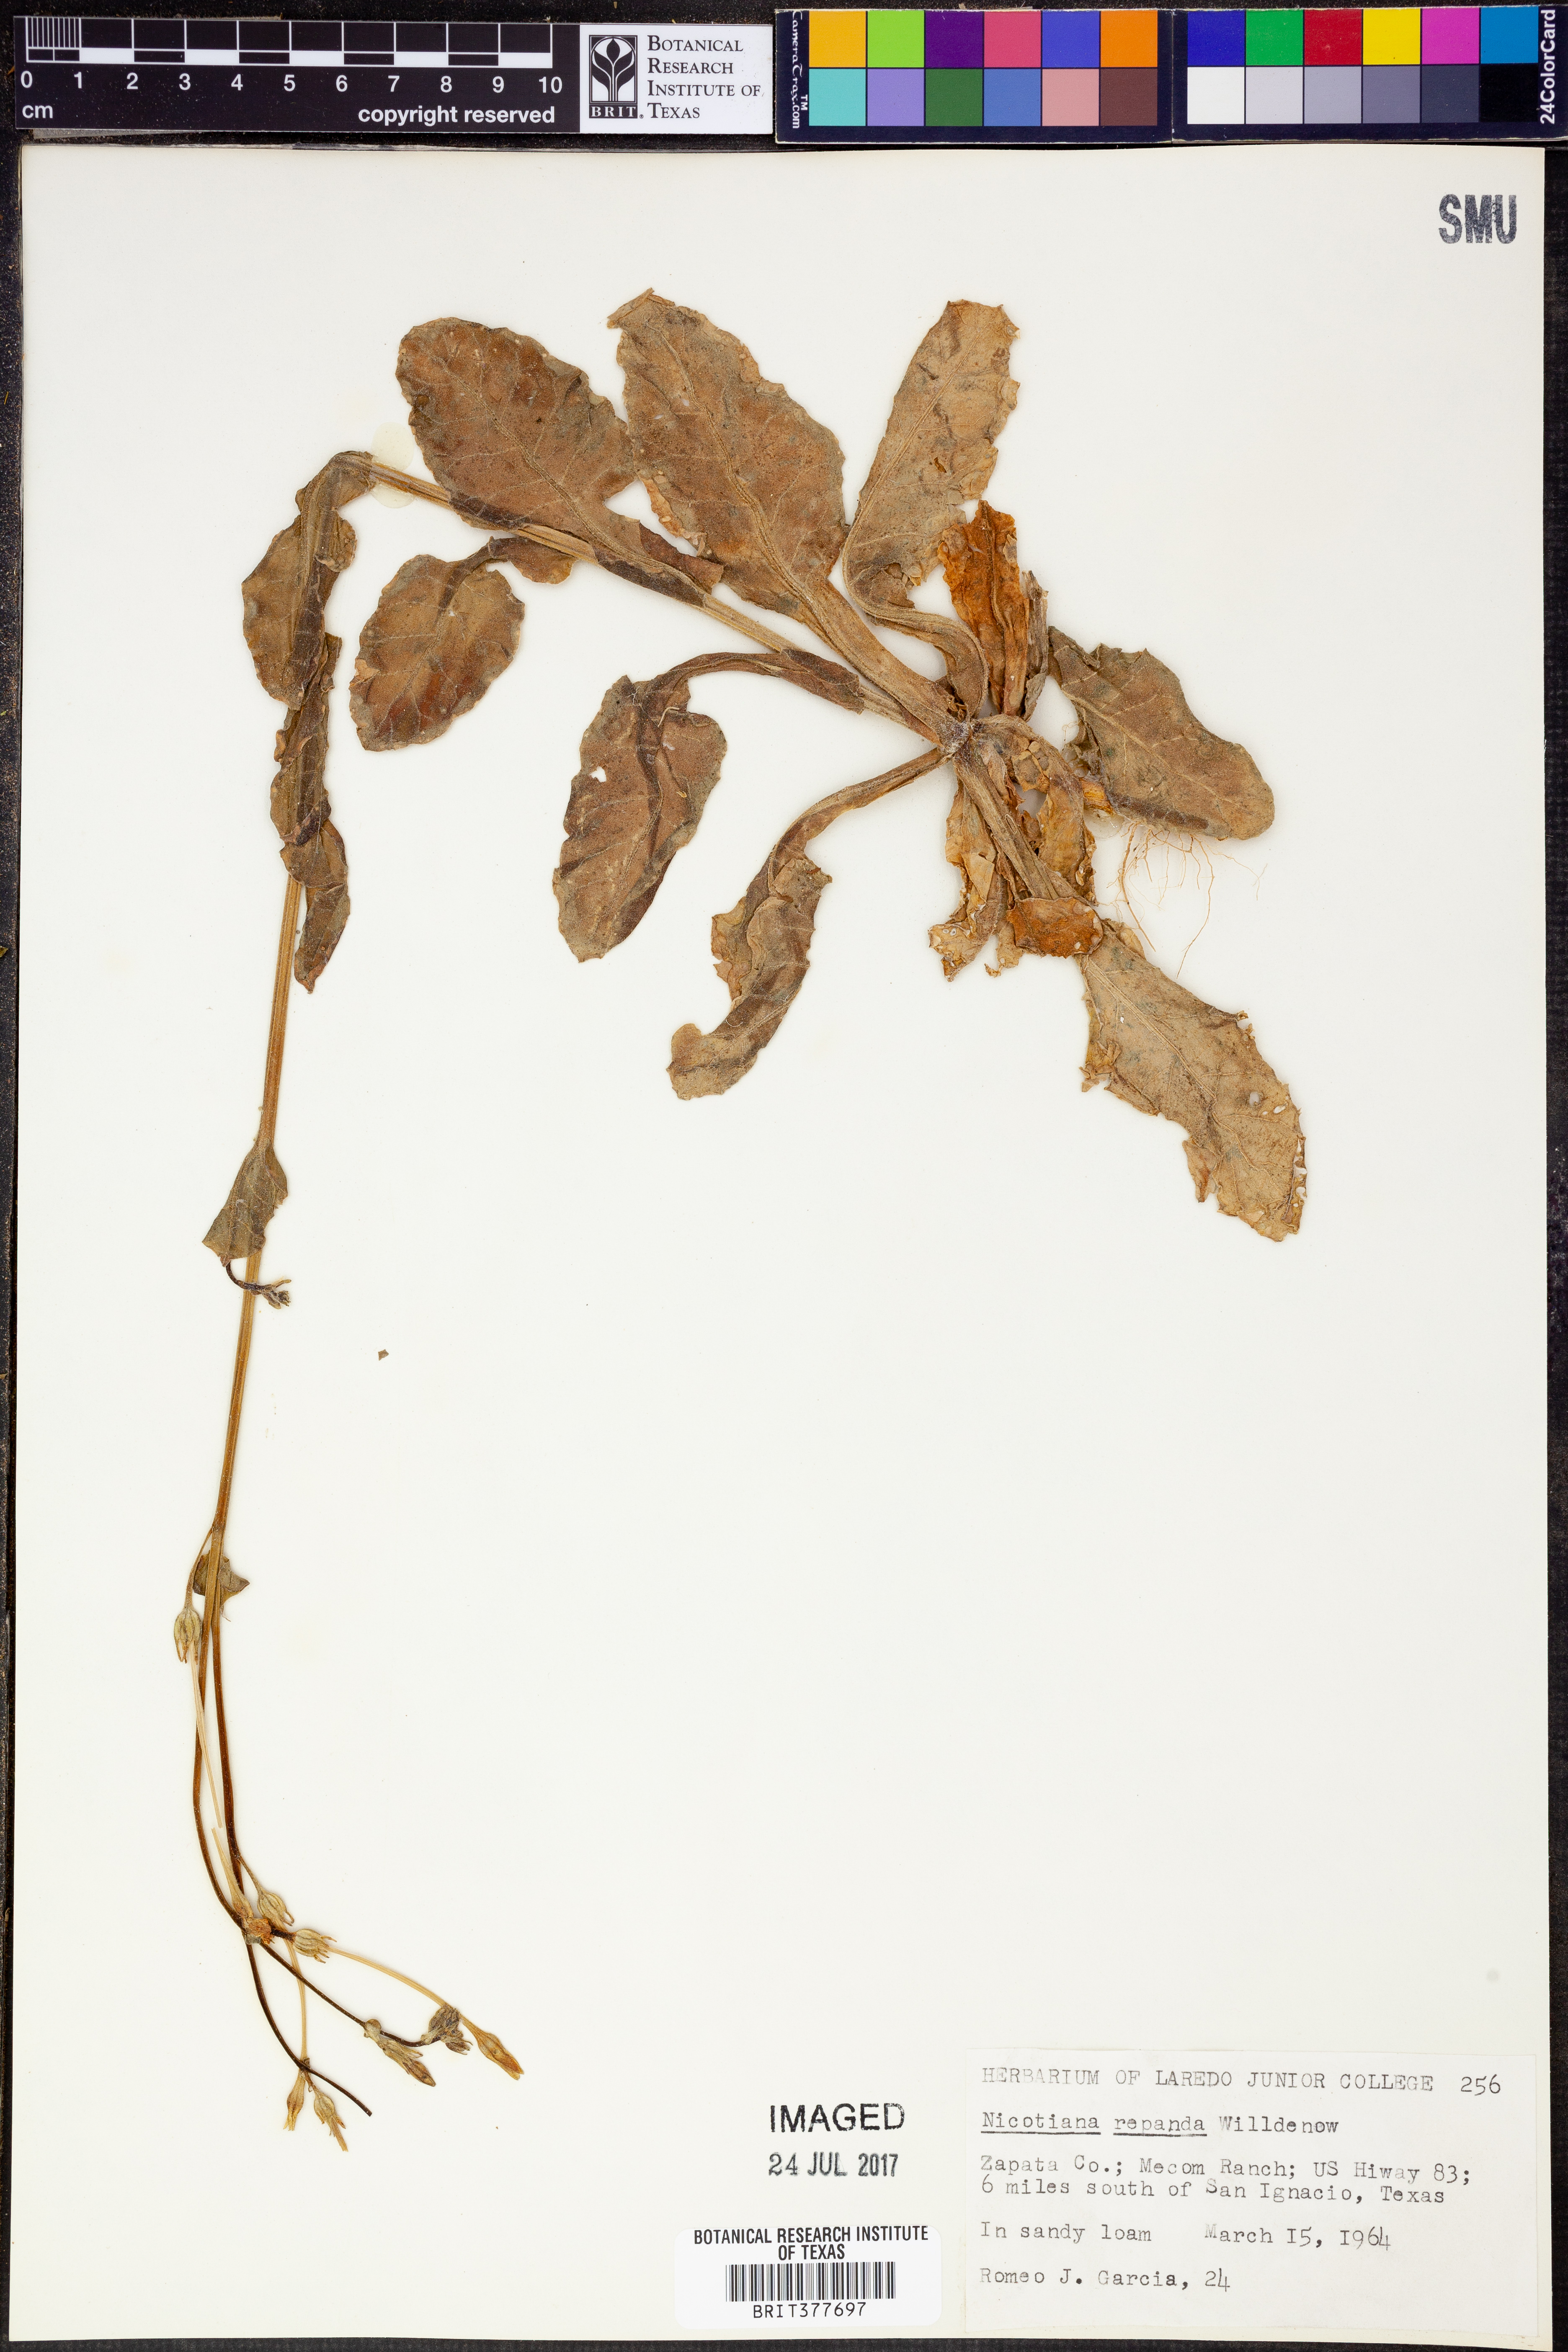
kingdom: Plantae
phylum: Tracheophyta
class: Magnoliopsida
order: Solanales
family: Solanaceae
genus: Nicotiana
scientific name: Nicotiana repanda
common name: Fiddle-leaf tobacco
